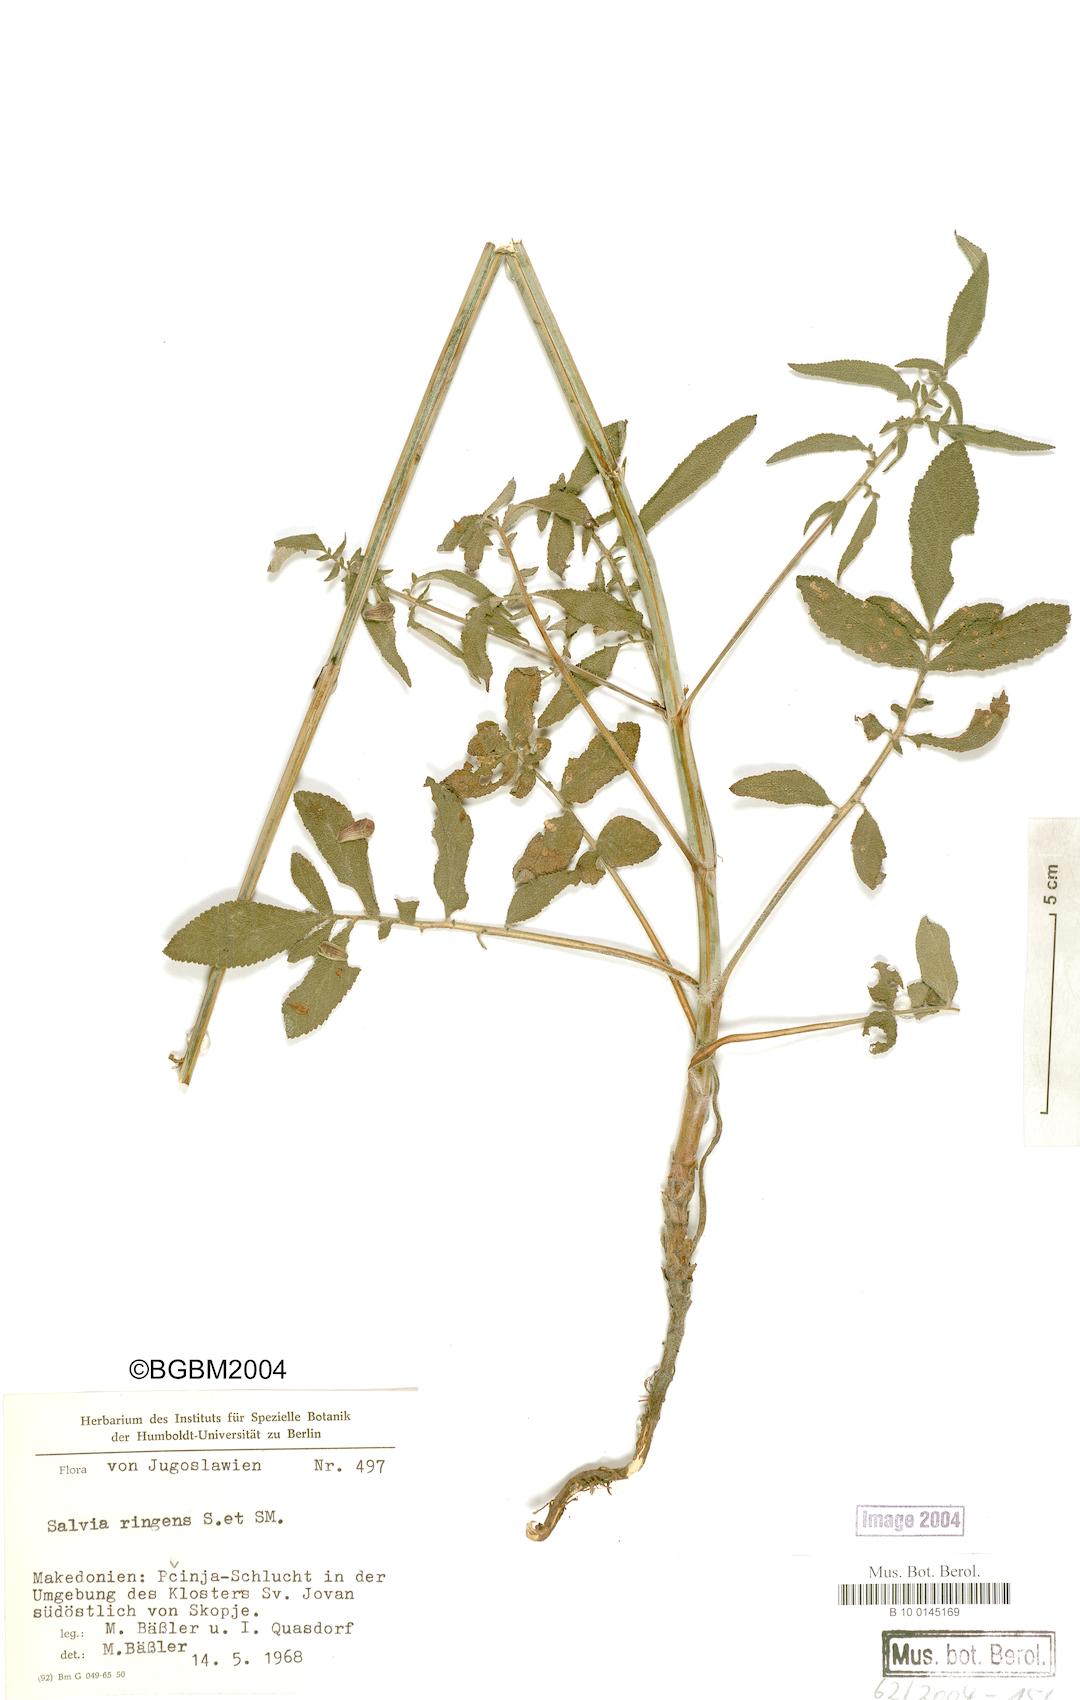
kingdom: Plantae
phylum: Tracheophyta
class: Magnoliopsida
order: Lamiales
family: Lamiaceae
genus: Salvia
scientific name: Salvia ringens
